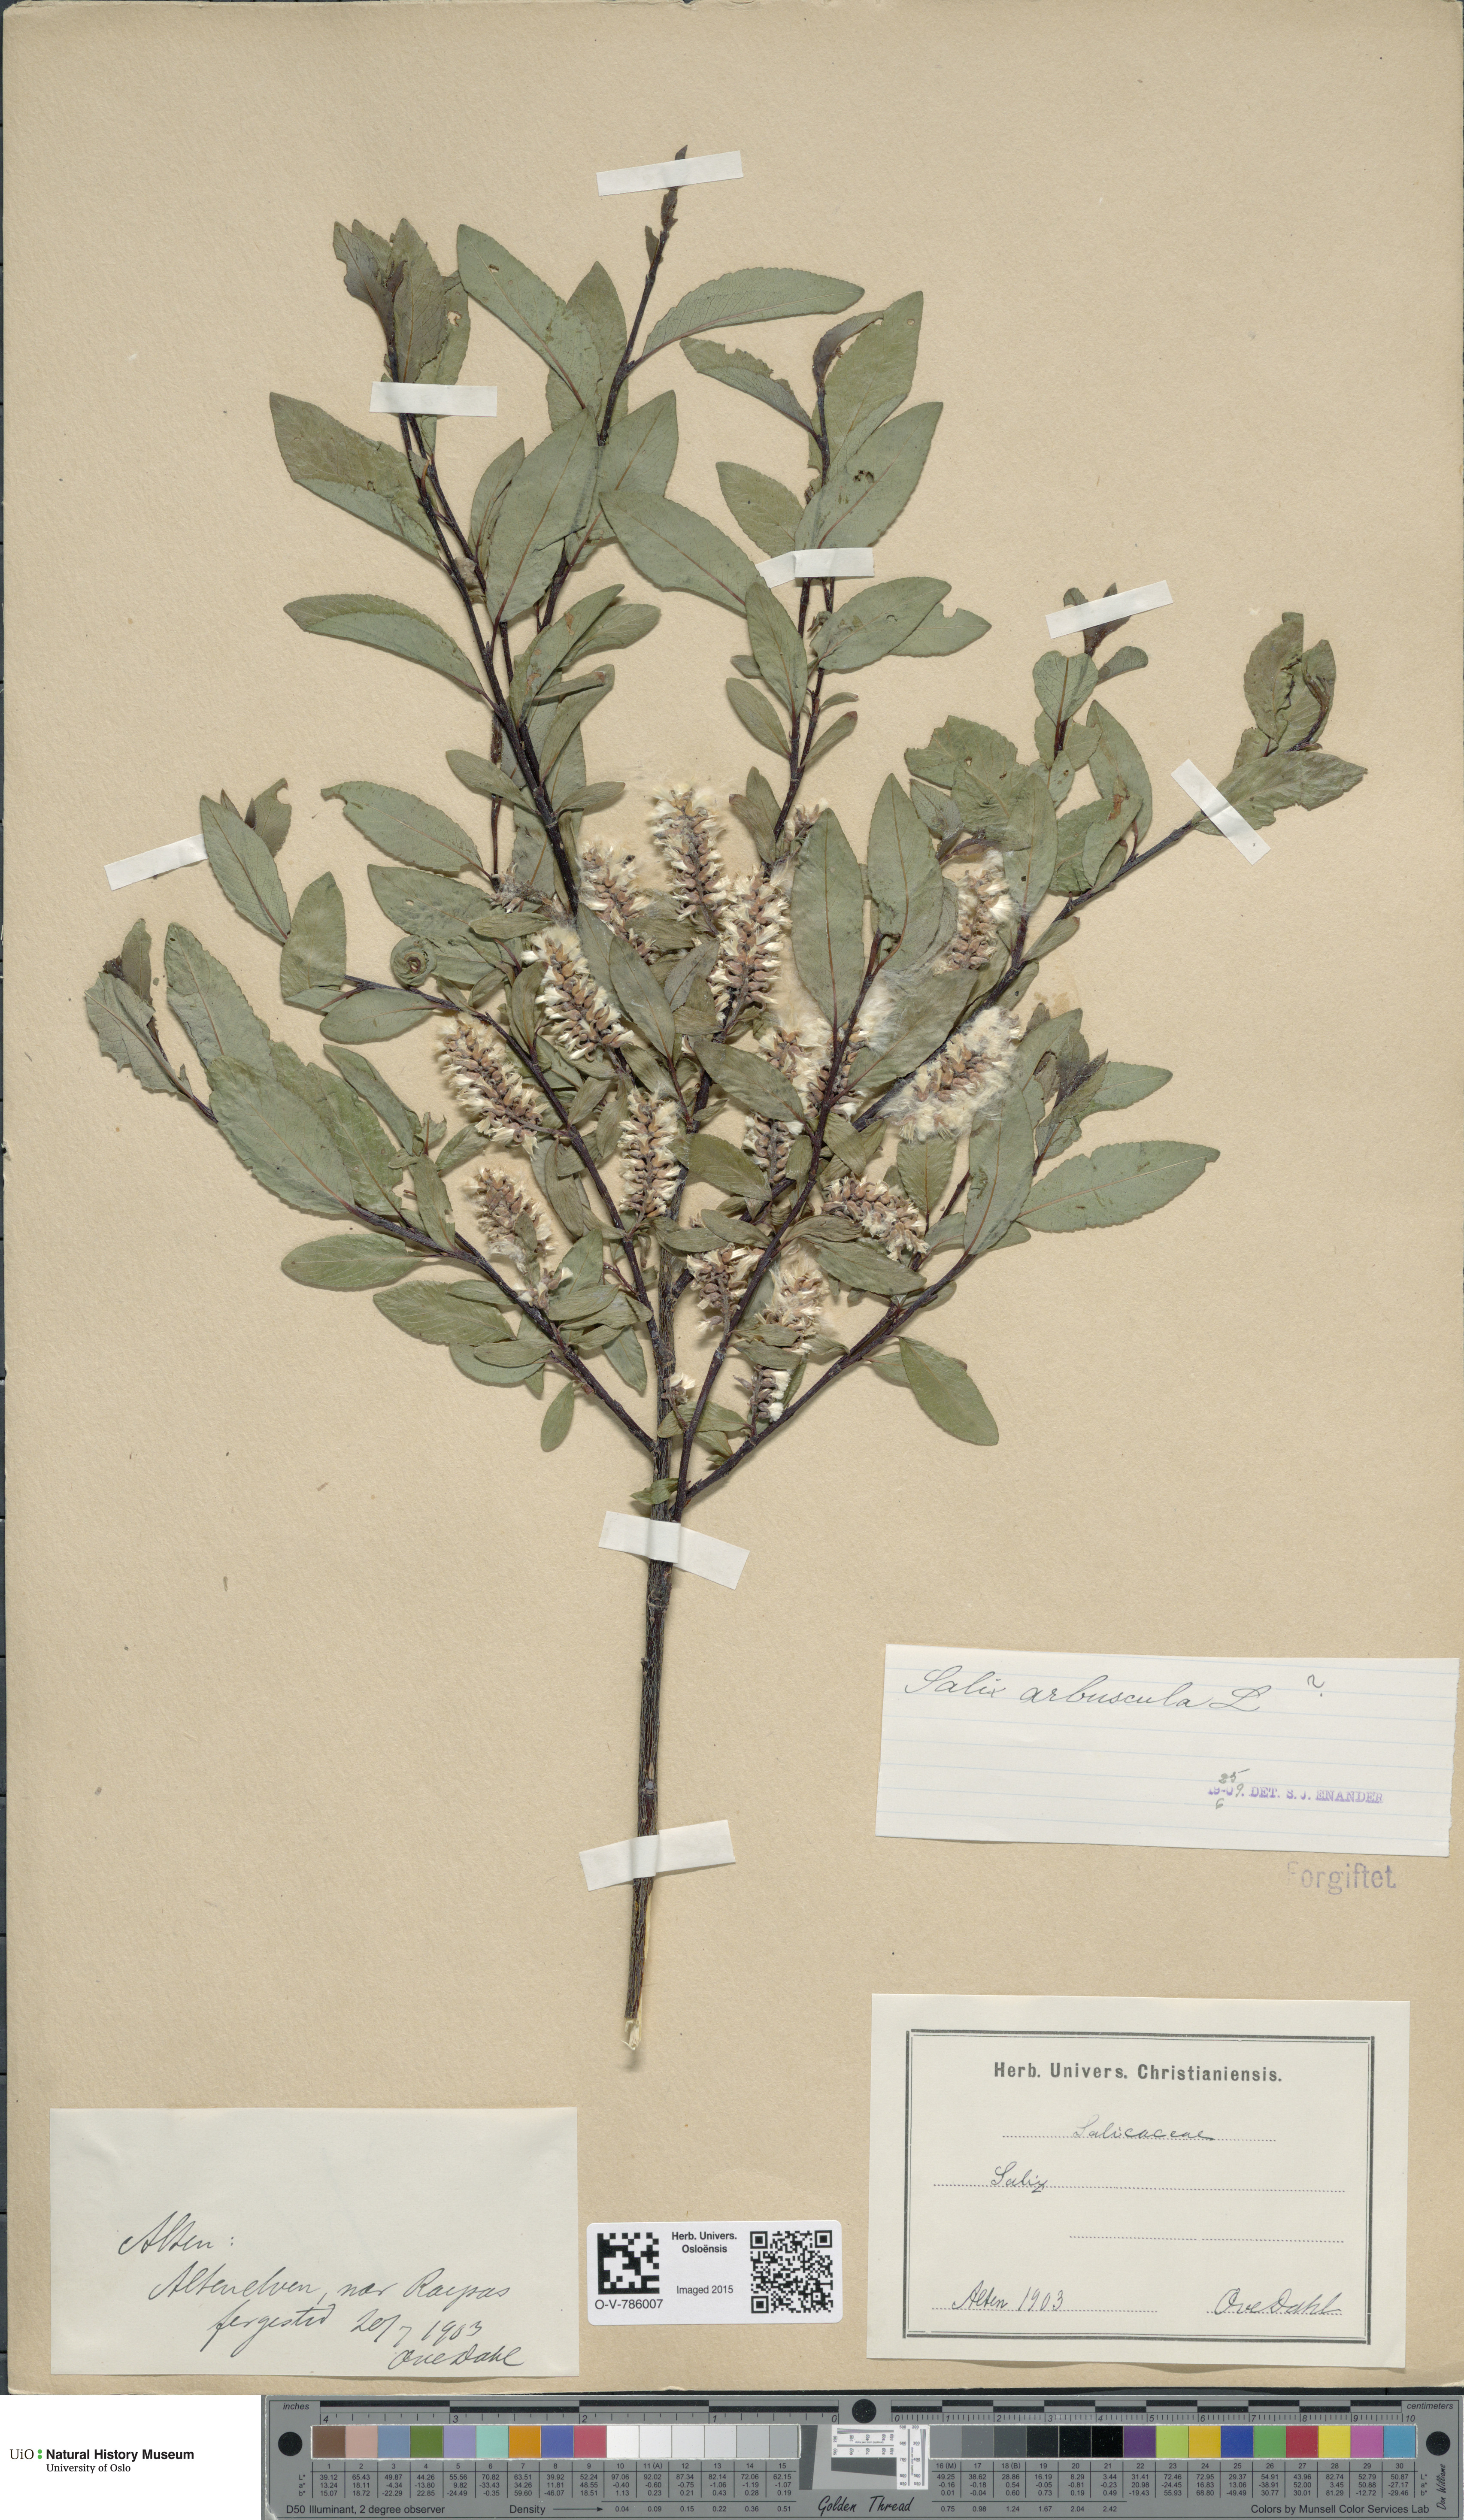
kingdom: Plantae
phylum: Tracheophyta
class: Magnoliopsida
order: Malpighiales
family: Salicaceae
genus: Salix
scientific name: Salix arbuscula
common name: Mountain willow
